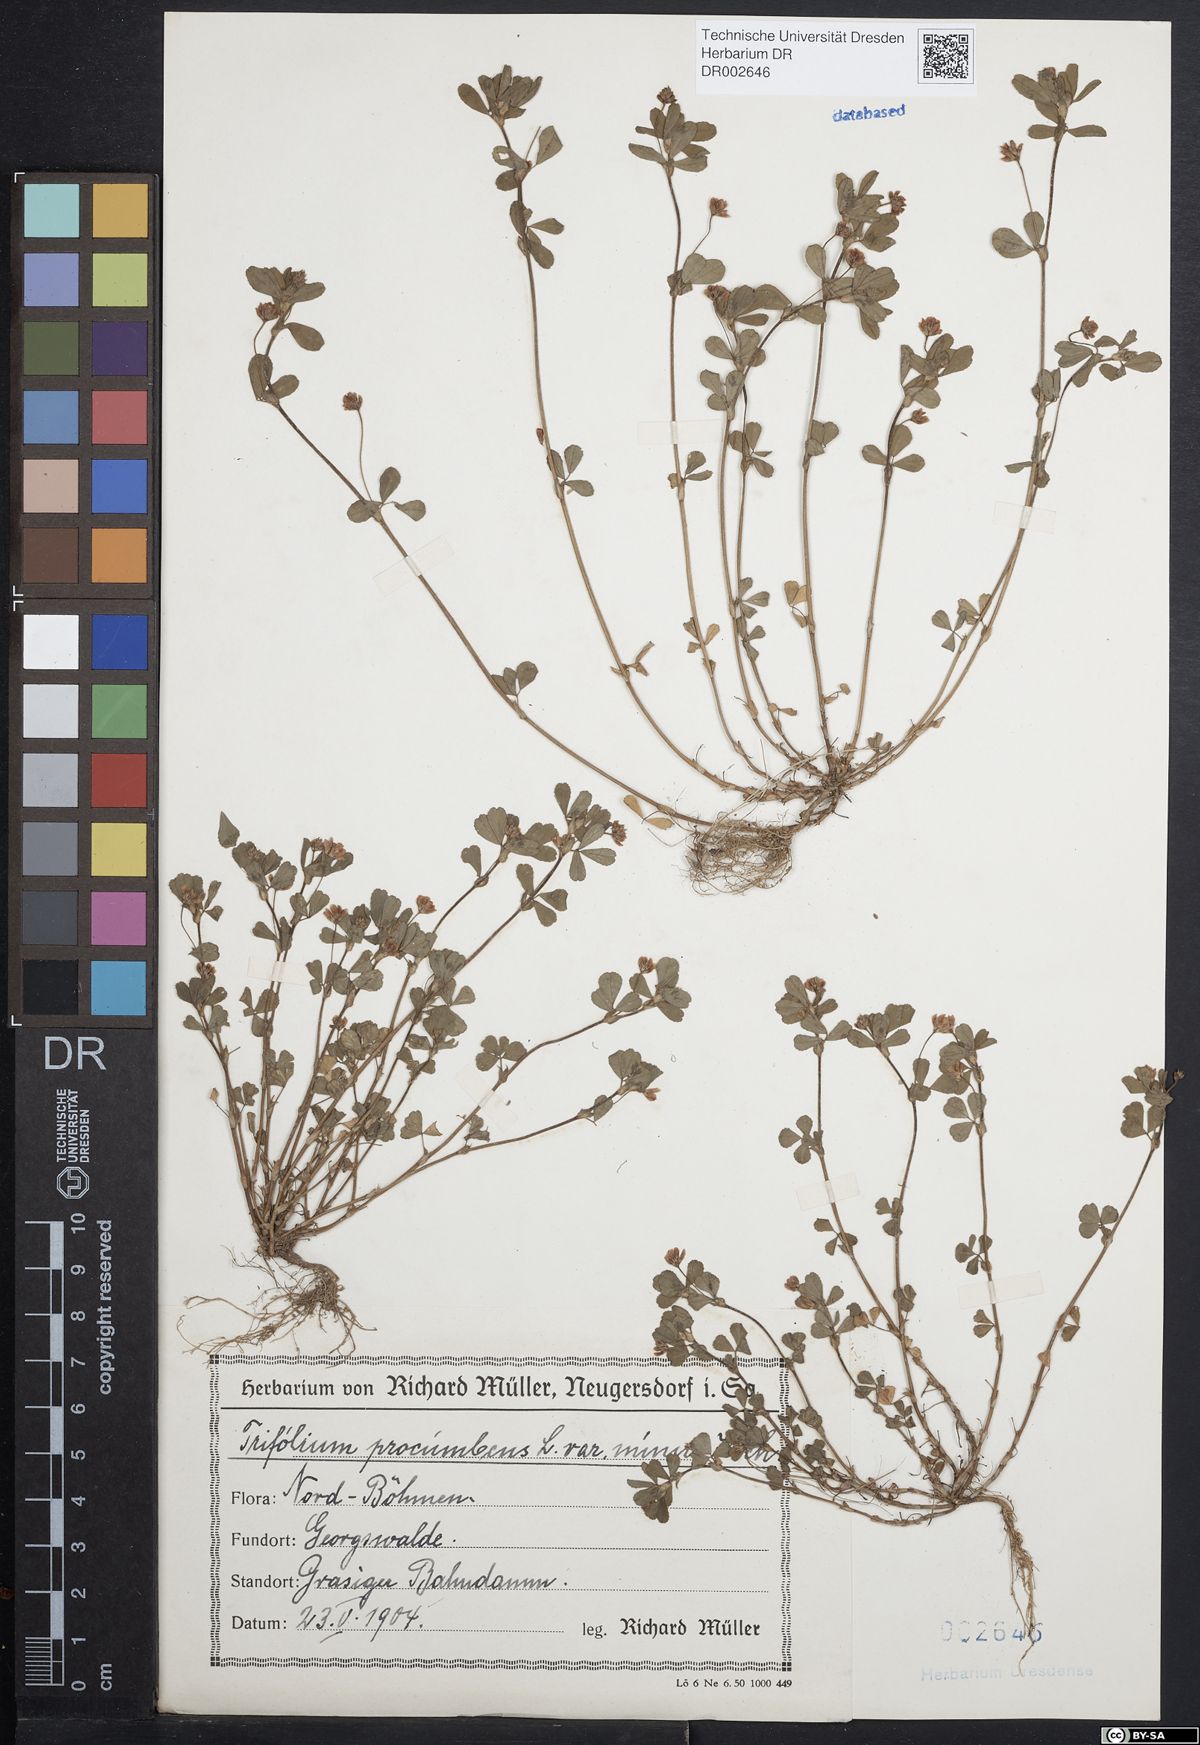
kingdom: Plantae
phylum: Tracheophyta
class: Magnoliopsida
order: Fabales
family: Fabaceae
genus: Trifolium
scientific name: Trifolium campestre
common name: Field clover
